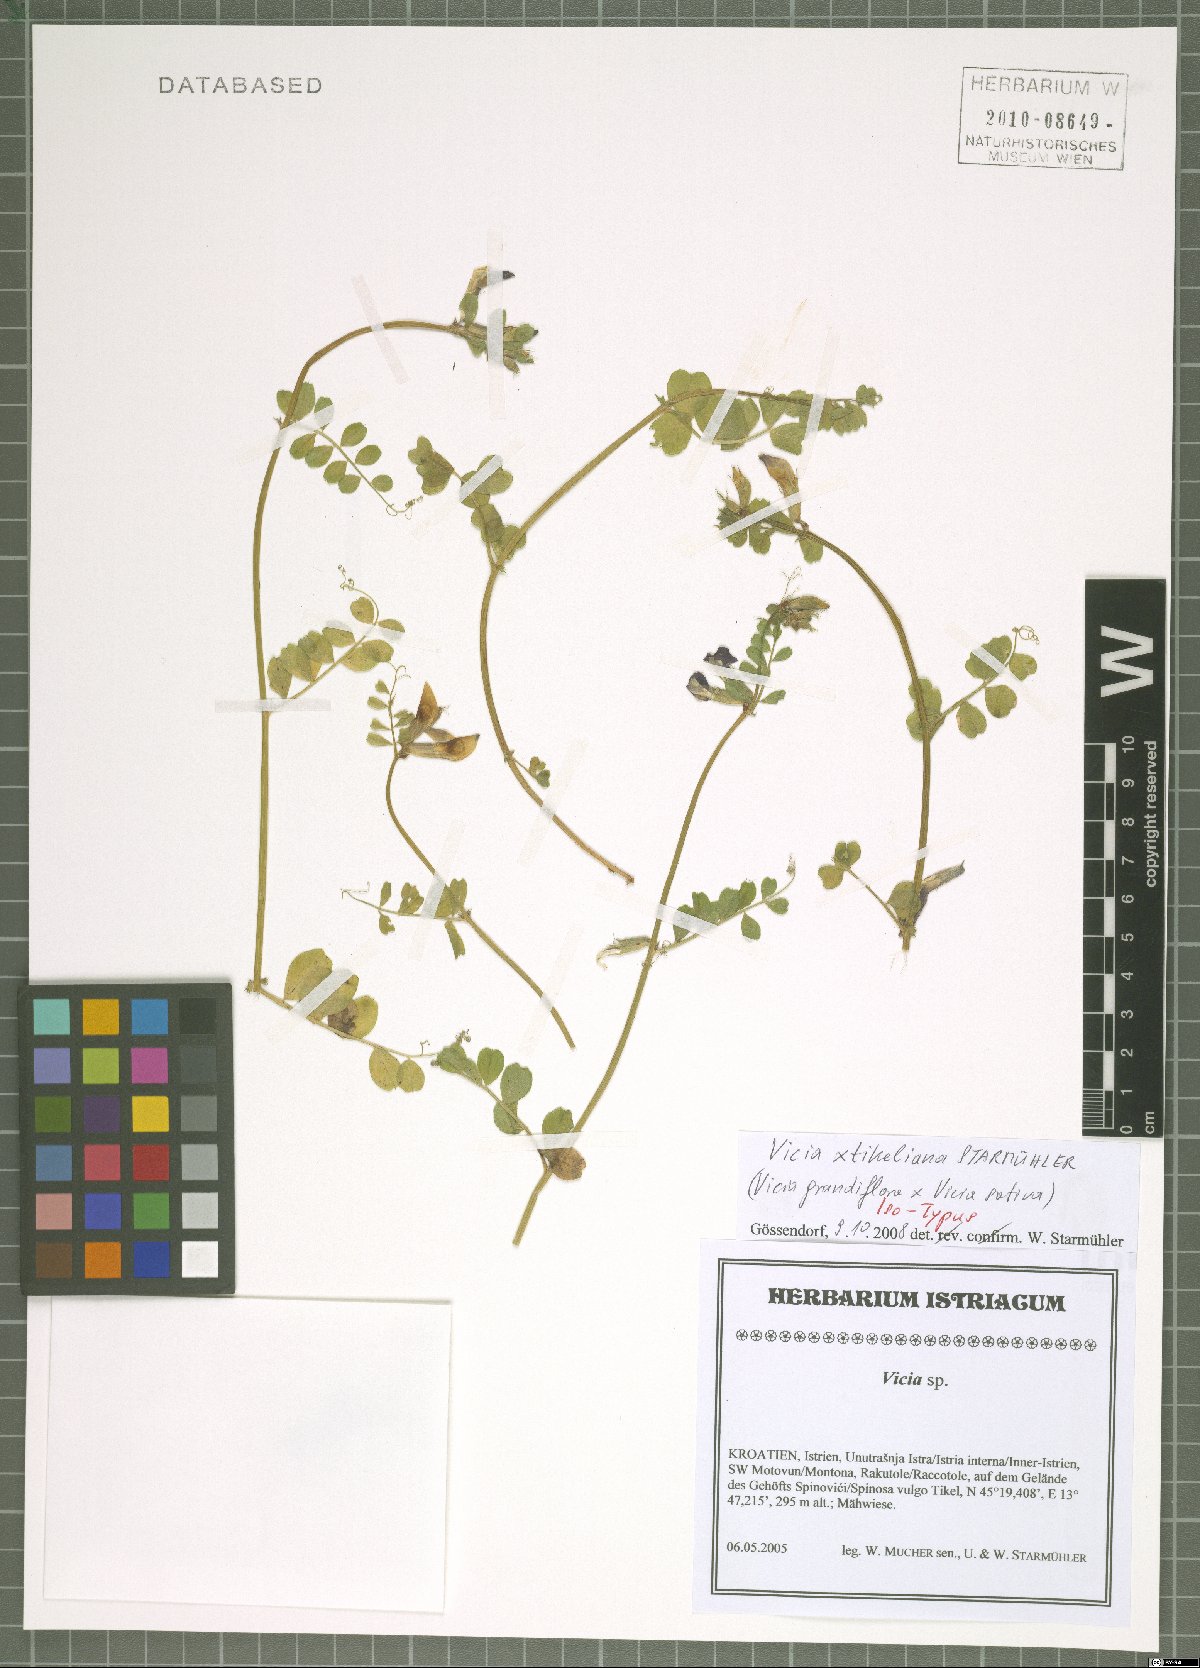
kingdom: Plantae
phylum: Tracheophyta
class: Magnoliopsida
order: Fabales
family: Fabaceae
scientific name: Fabaceae
